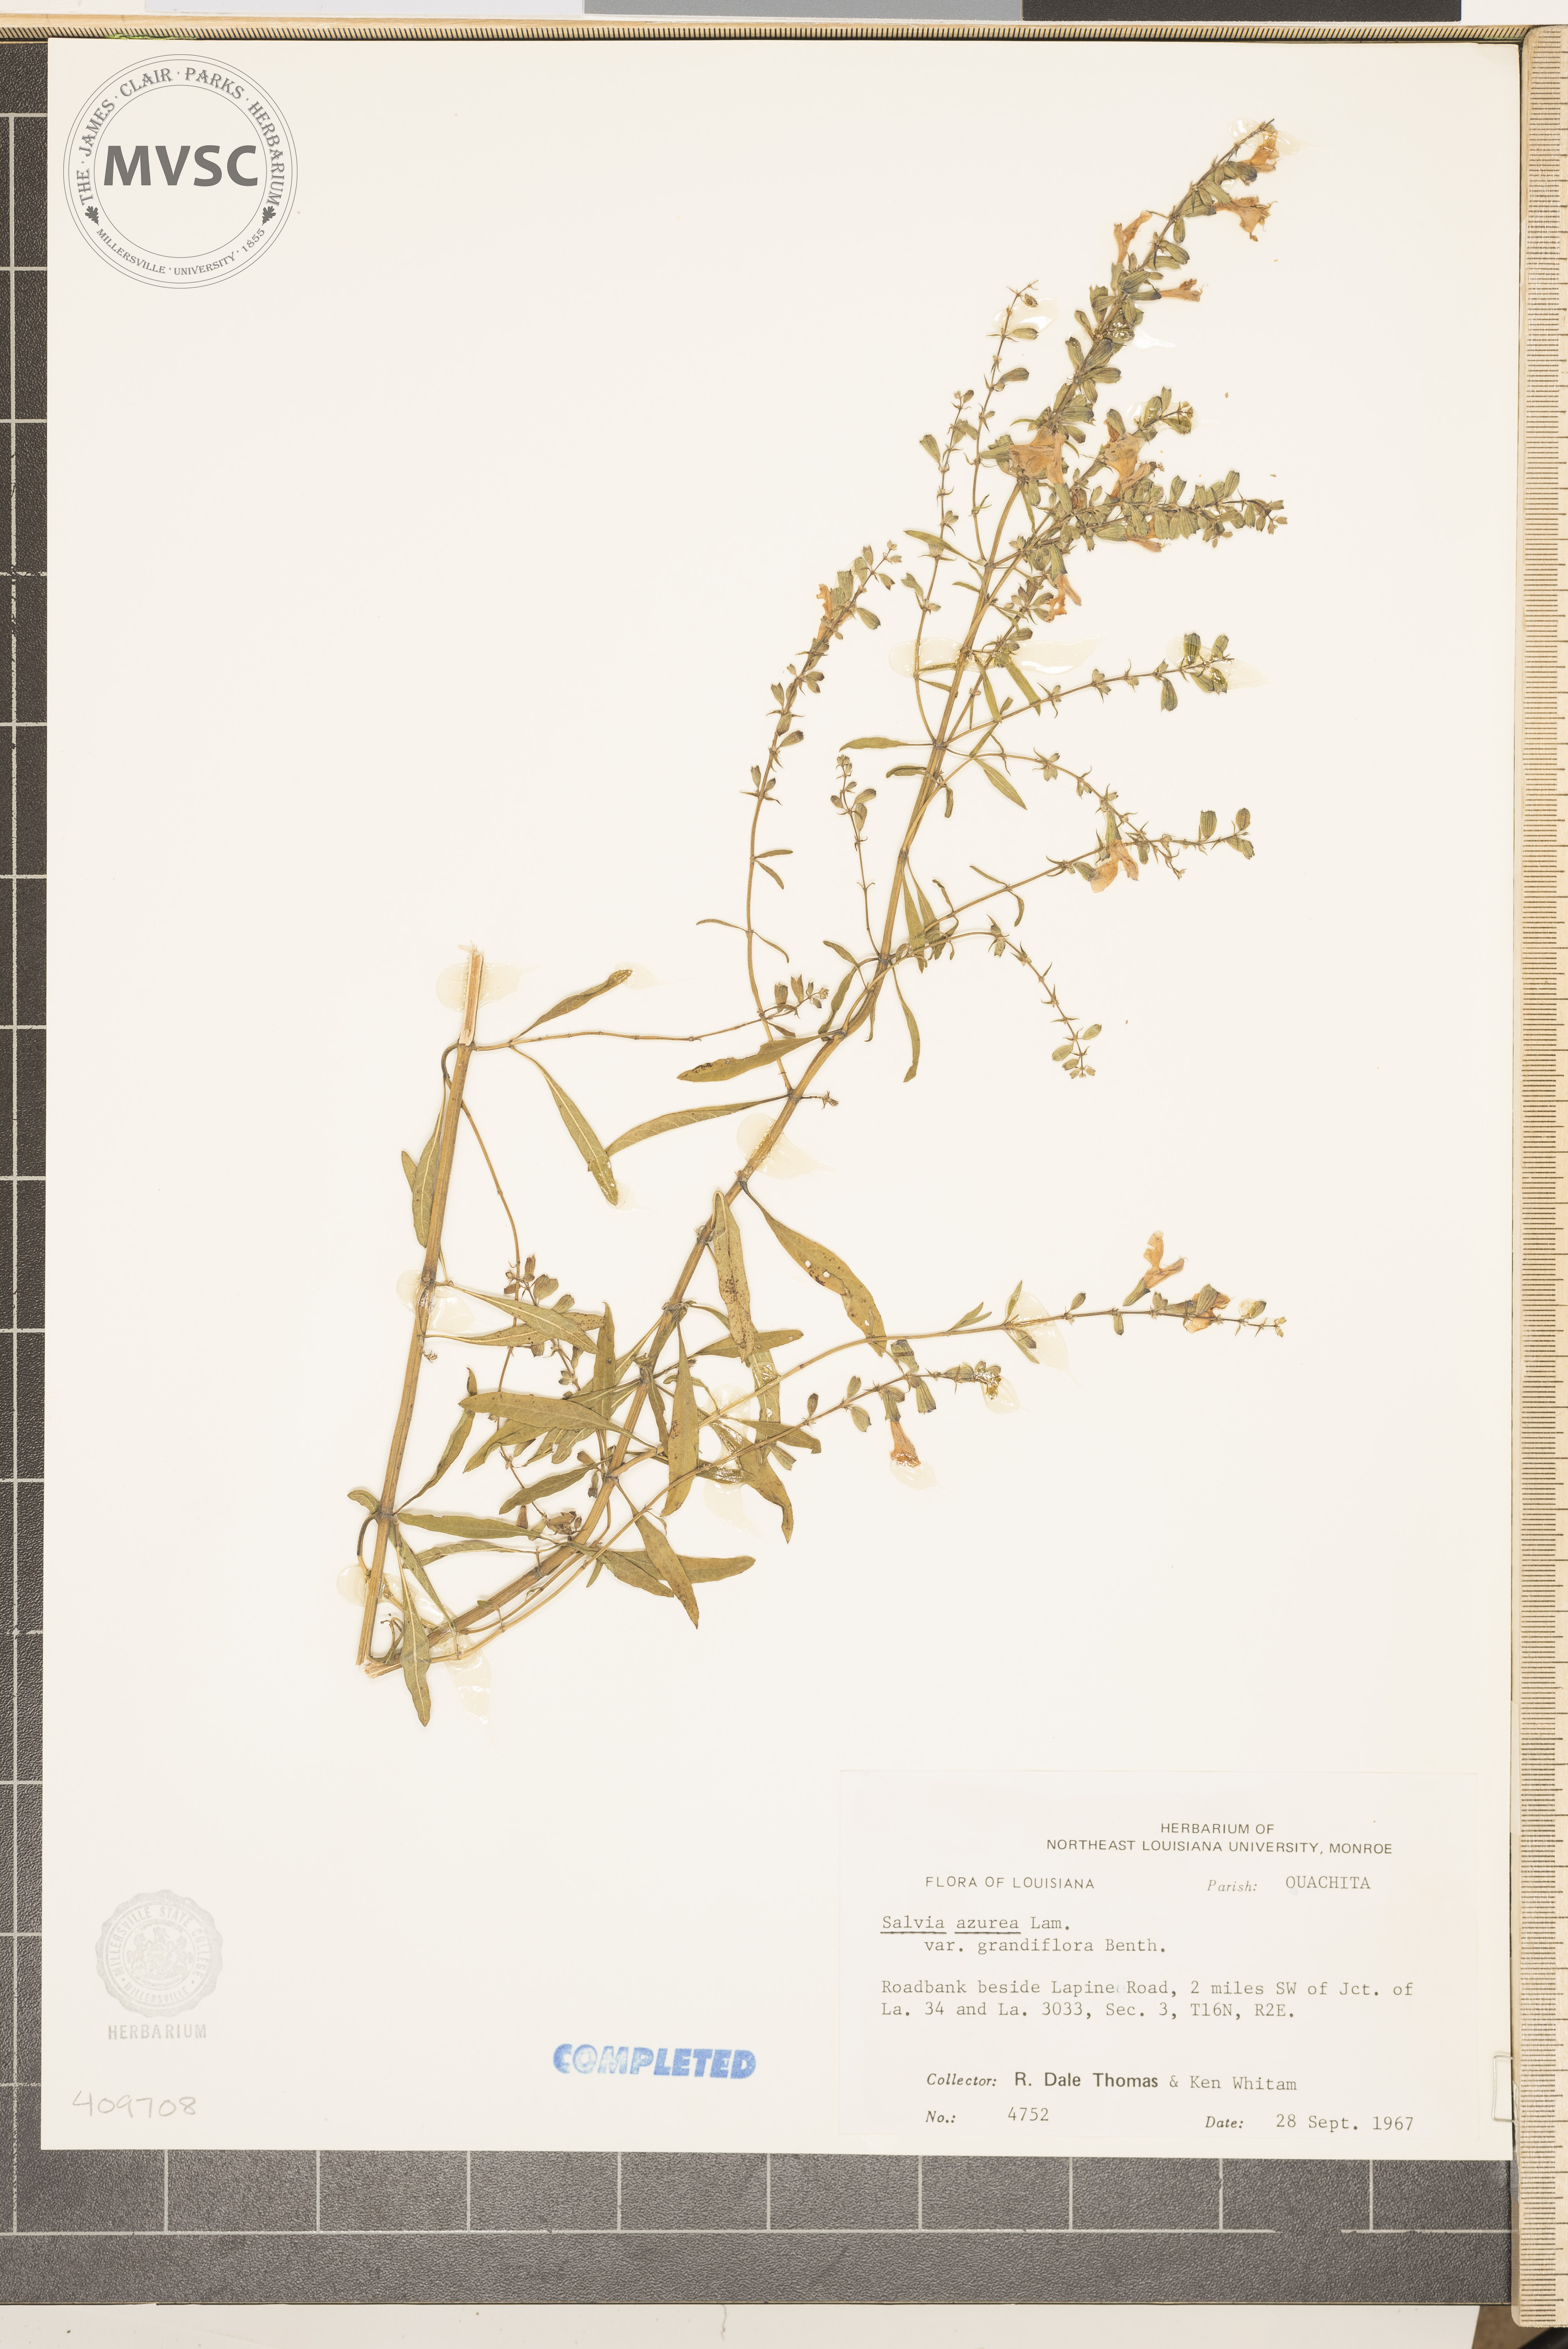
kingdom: Plantae
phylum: Tracheophyta
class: Magnoliopsida
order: Lamiales
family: Lamiaceae
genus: Salvia
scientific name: Salvia azurea
